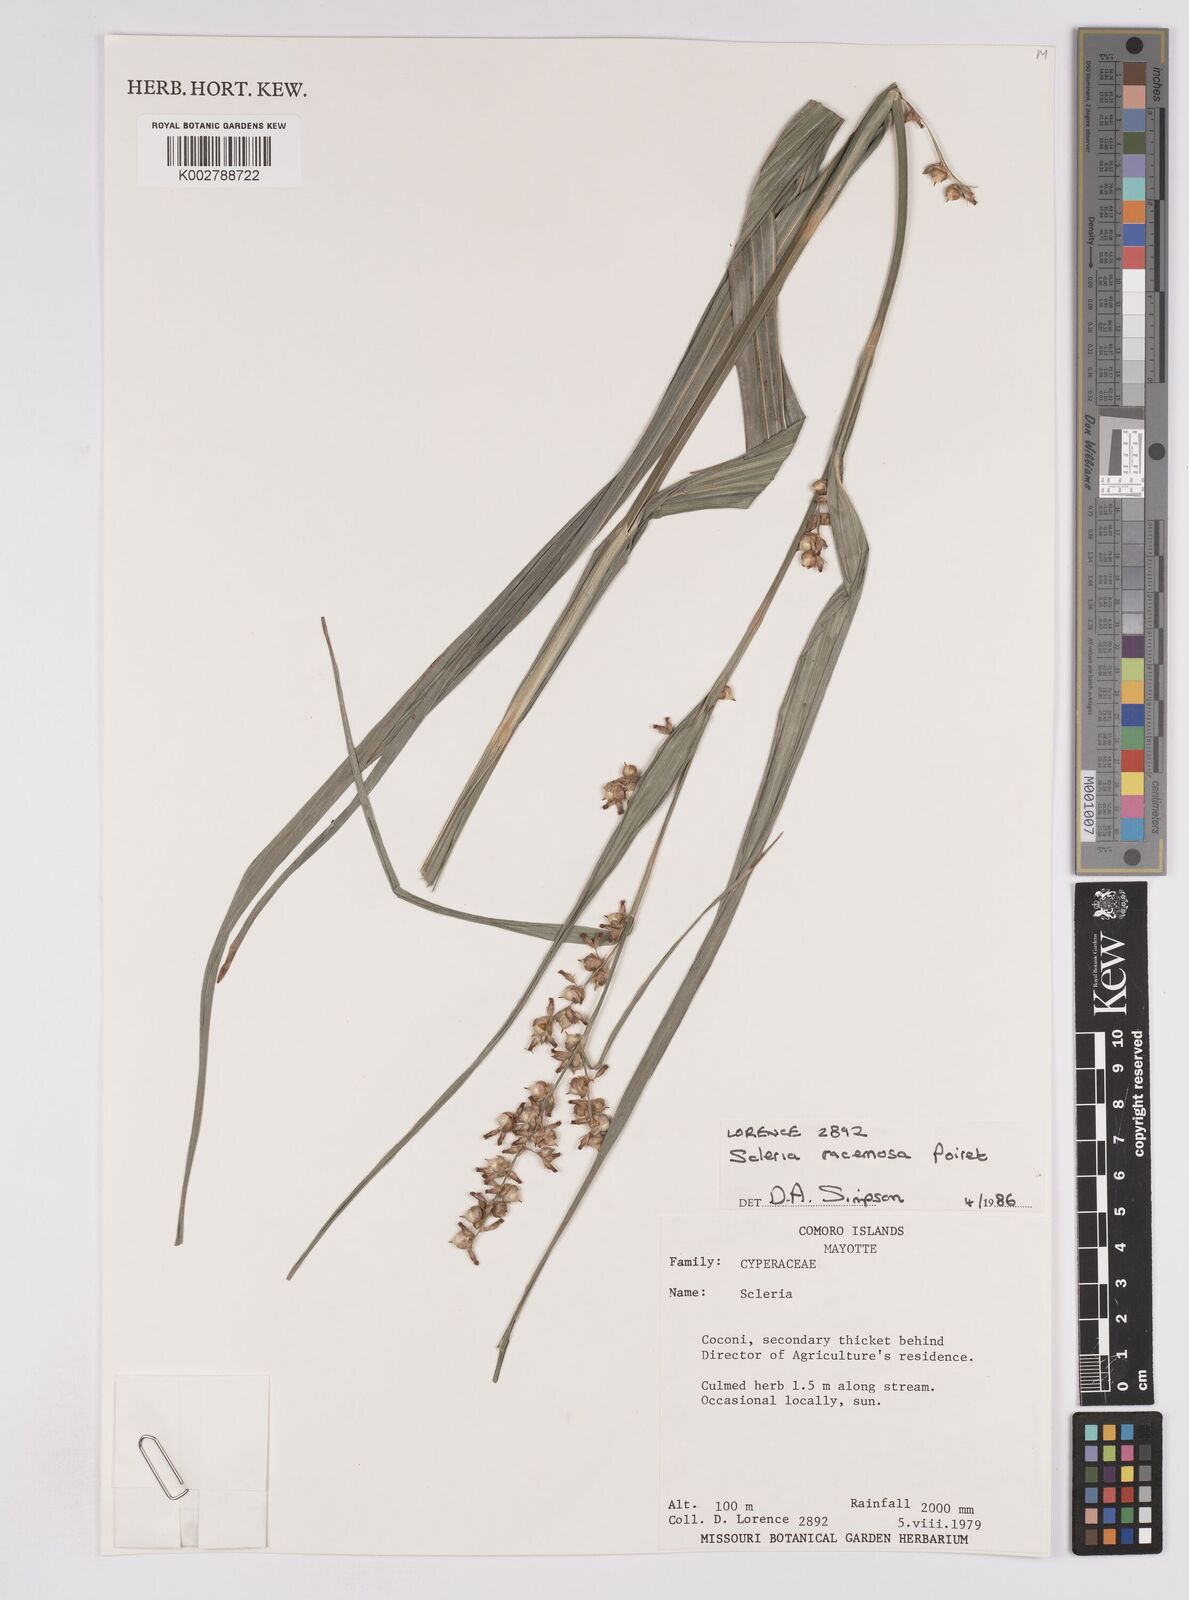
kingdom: Plantae
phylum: Tracheophyta
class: Liliopsida
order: Poales
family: Cyperaceae
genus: Scleria
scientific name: Scleria racemosa
